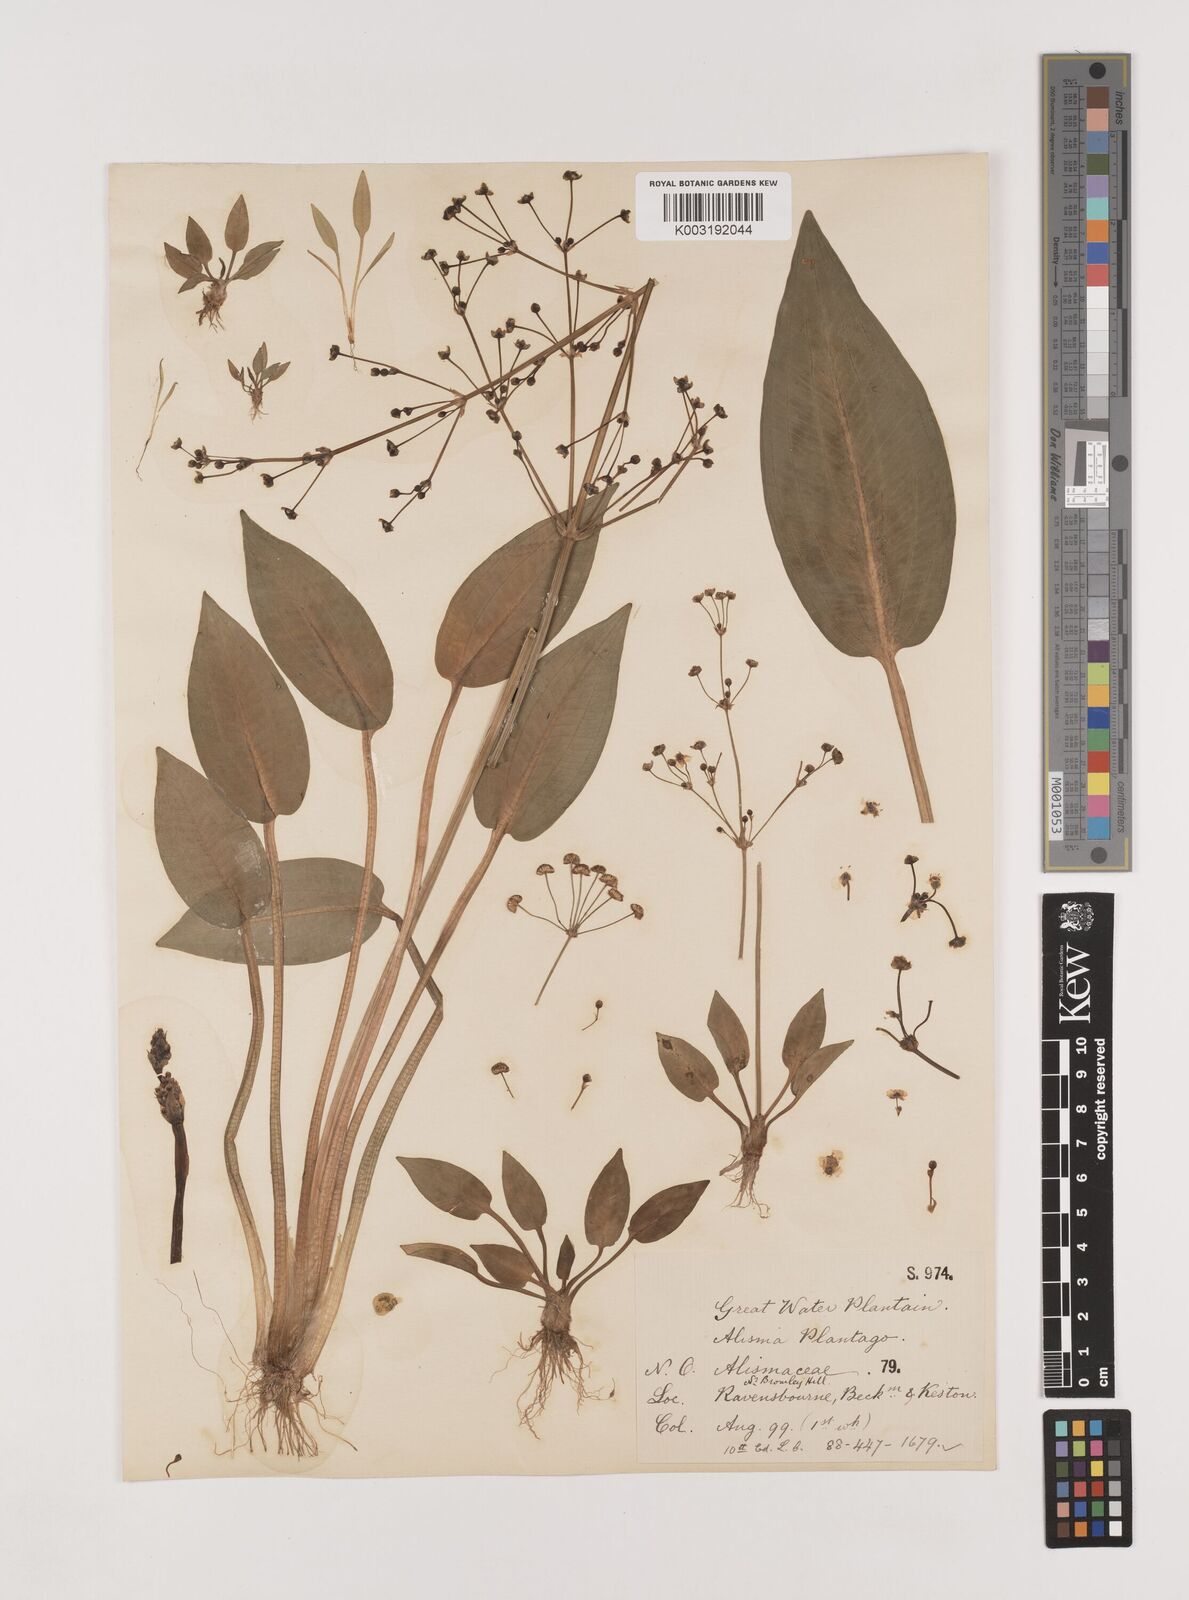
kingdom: Plantae
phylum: Tracheophyta
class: Liliopsida
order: Alismatales
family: Alismataceae
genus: Alisma
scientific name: Alisma plantago-aquatica
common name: Water-plantain
